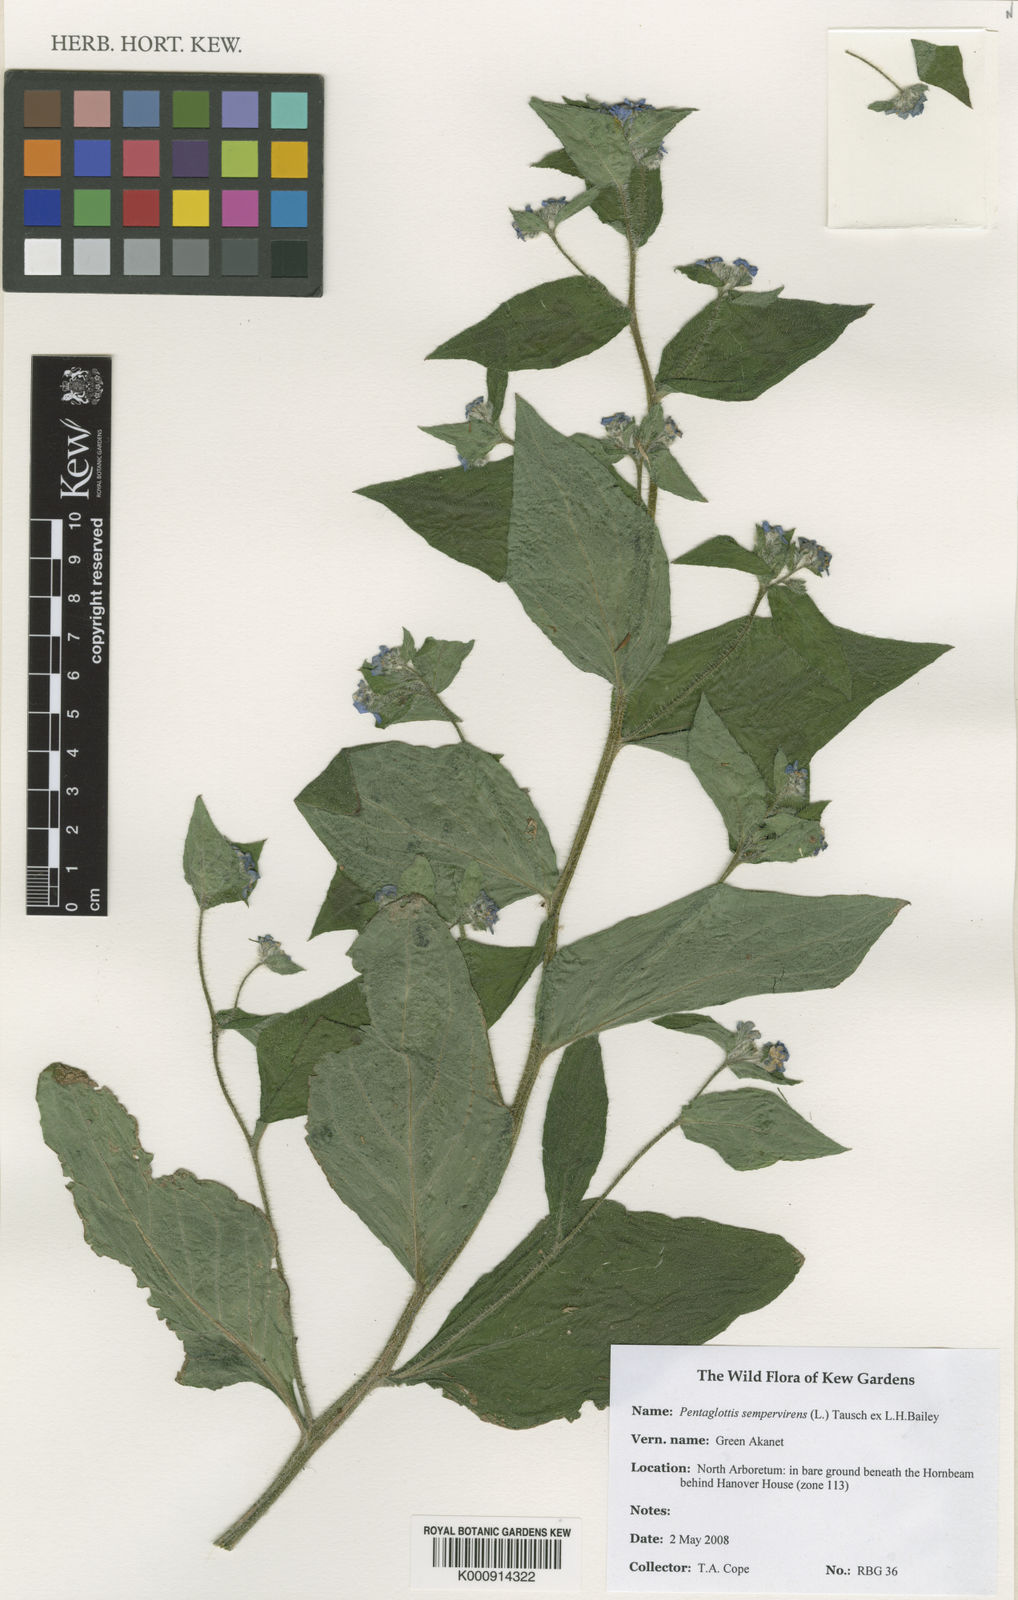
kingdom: Plantae
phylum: Tracheophyta
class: Magnoliopsida
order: Boraginales
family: Boraginaceae
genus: Pentaglottis
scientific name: Pentaglottis sempervirens
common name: Green alkanet
